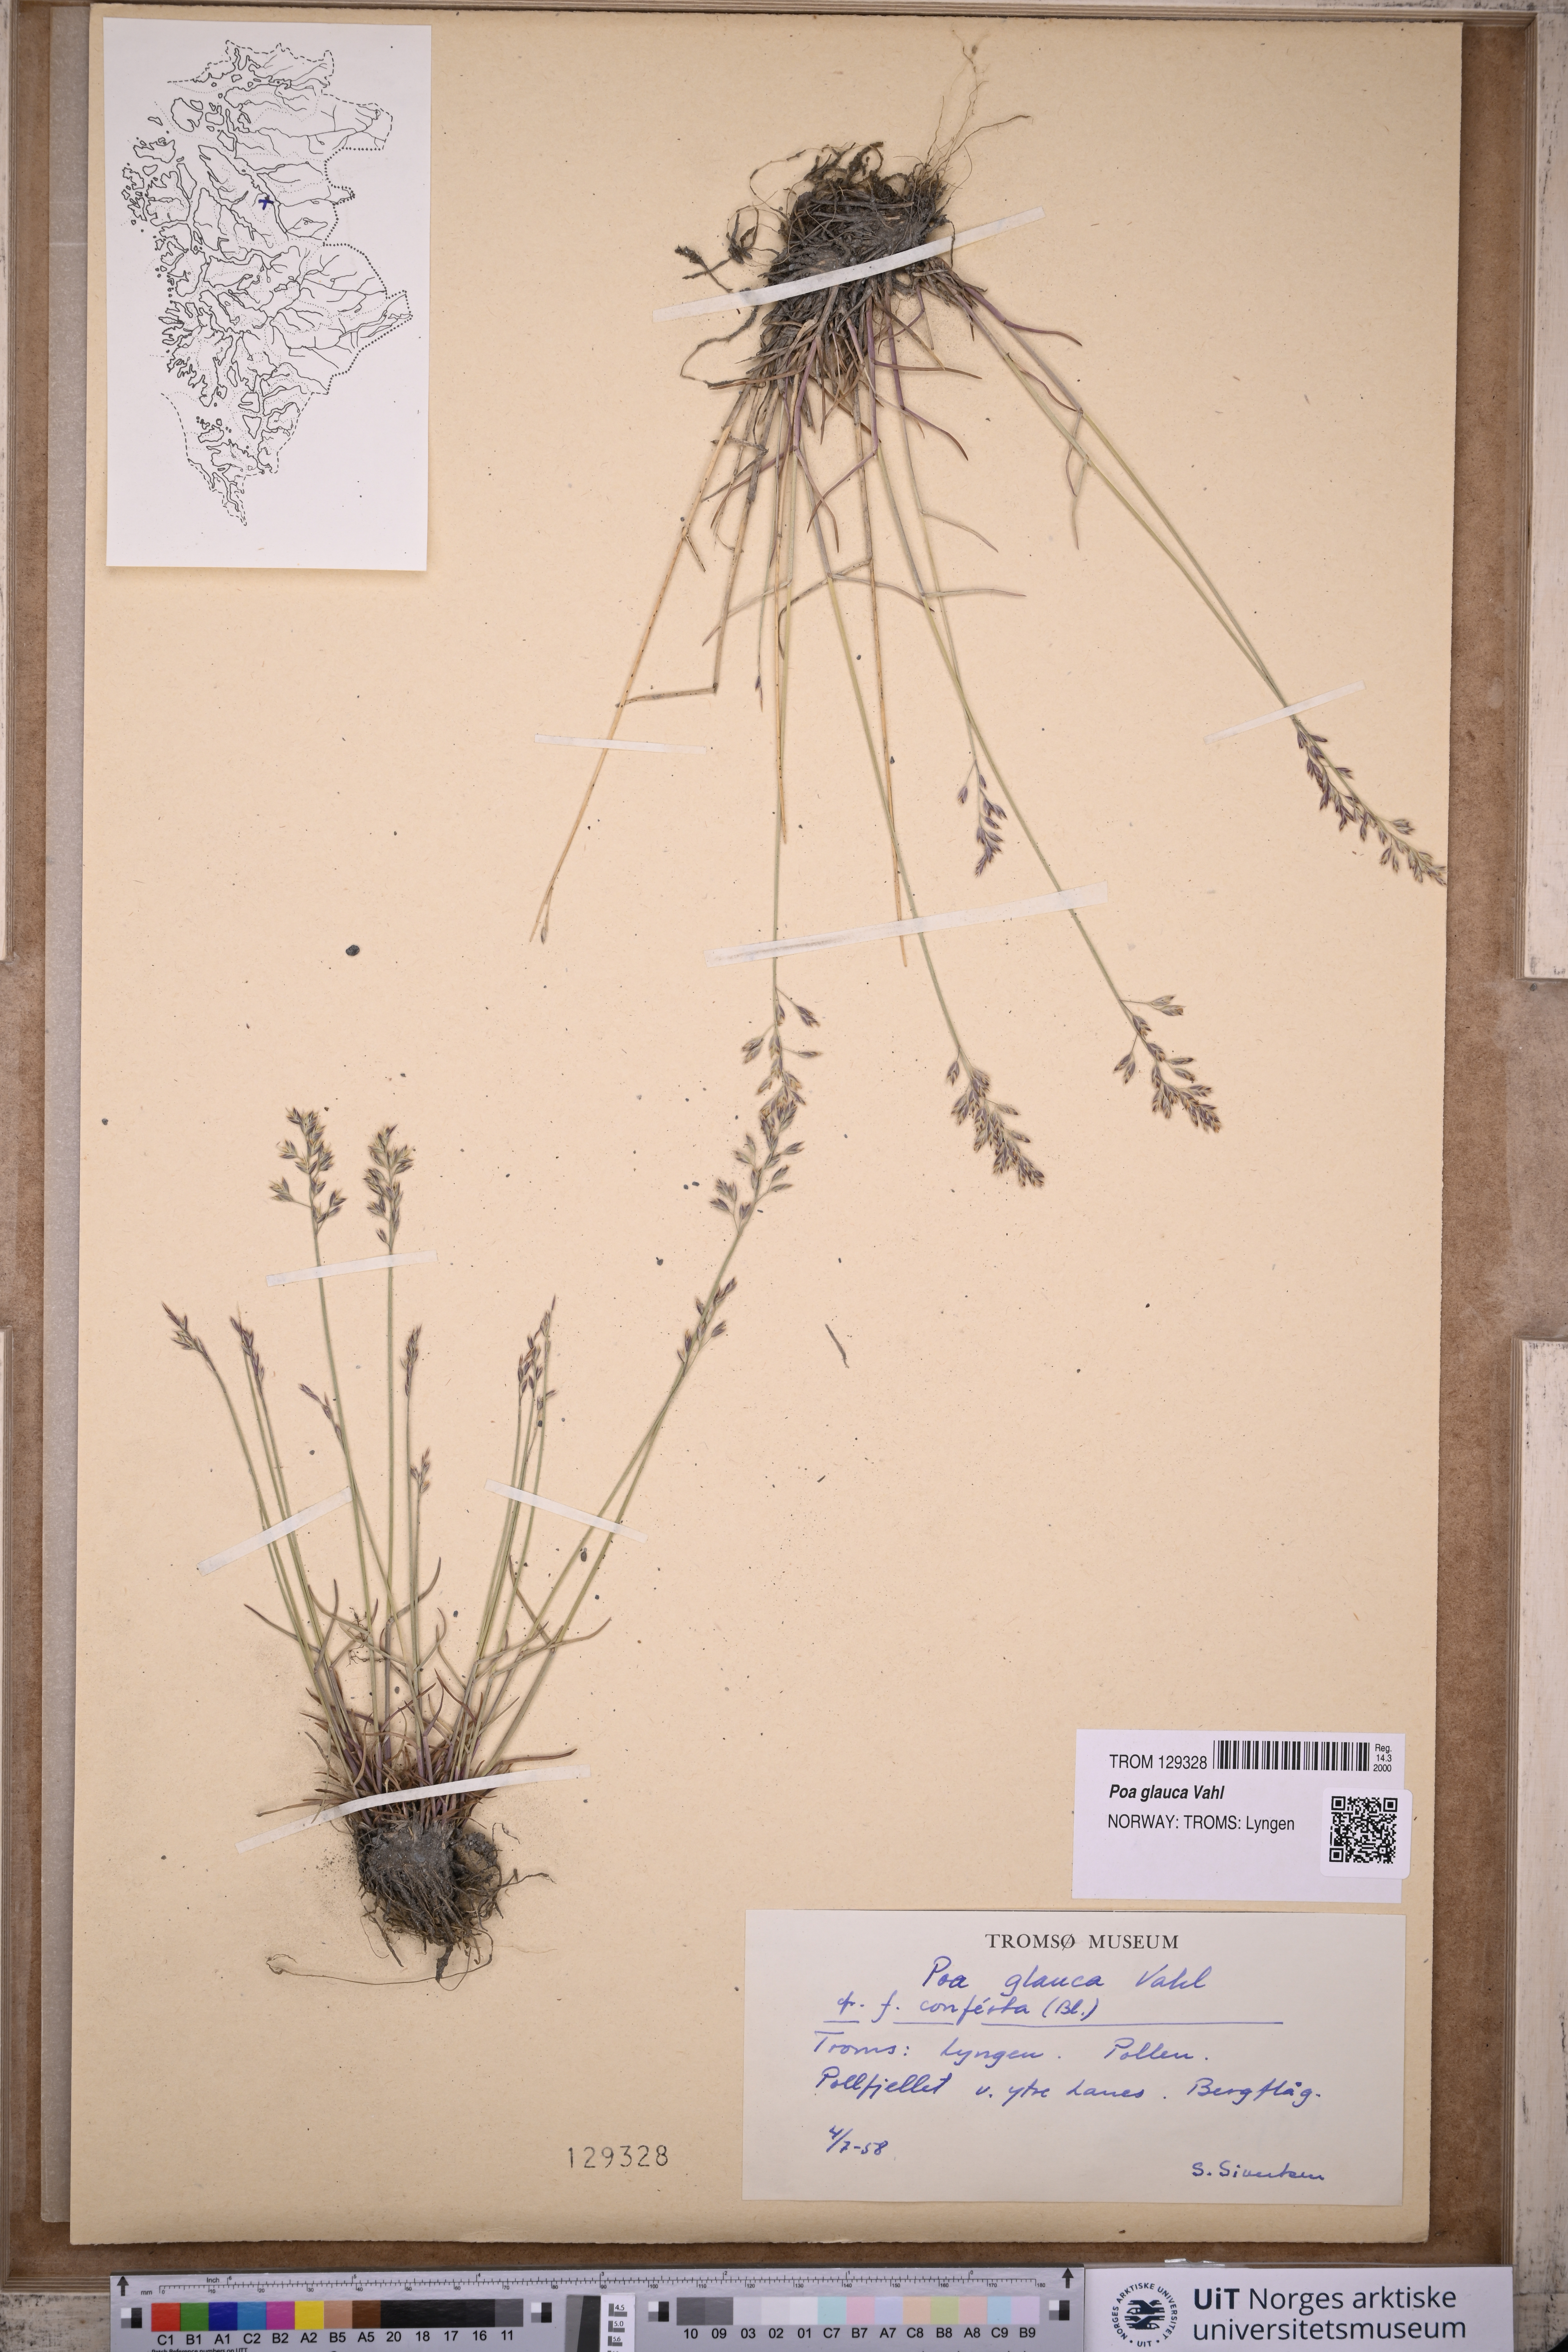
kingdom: Plantae
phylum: Tracheophyta
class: Liliopsida
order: Poales
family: Poaceae
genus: Poa
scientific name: Poa glauca
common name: Glaucous bluegrass
